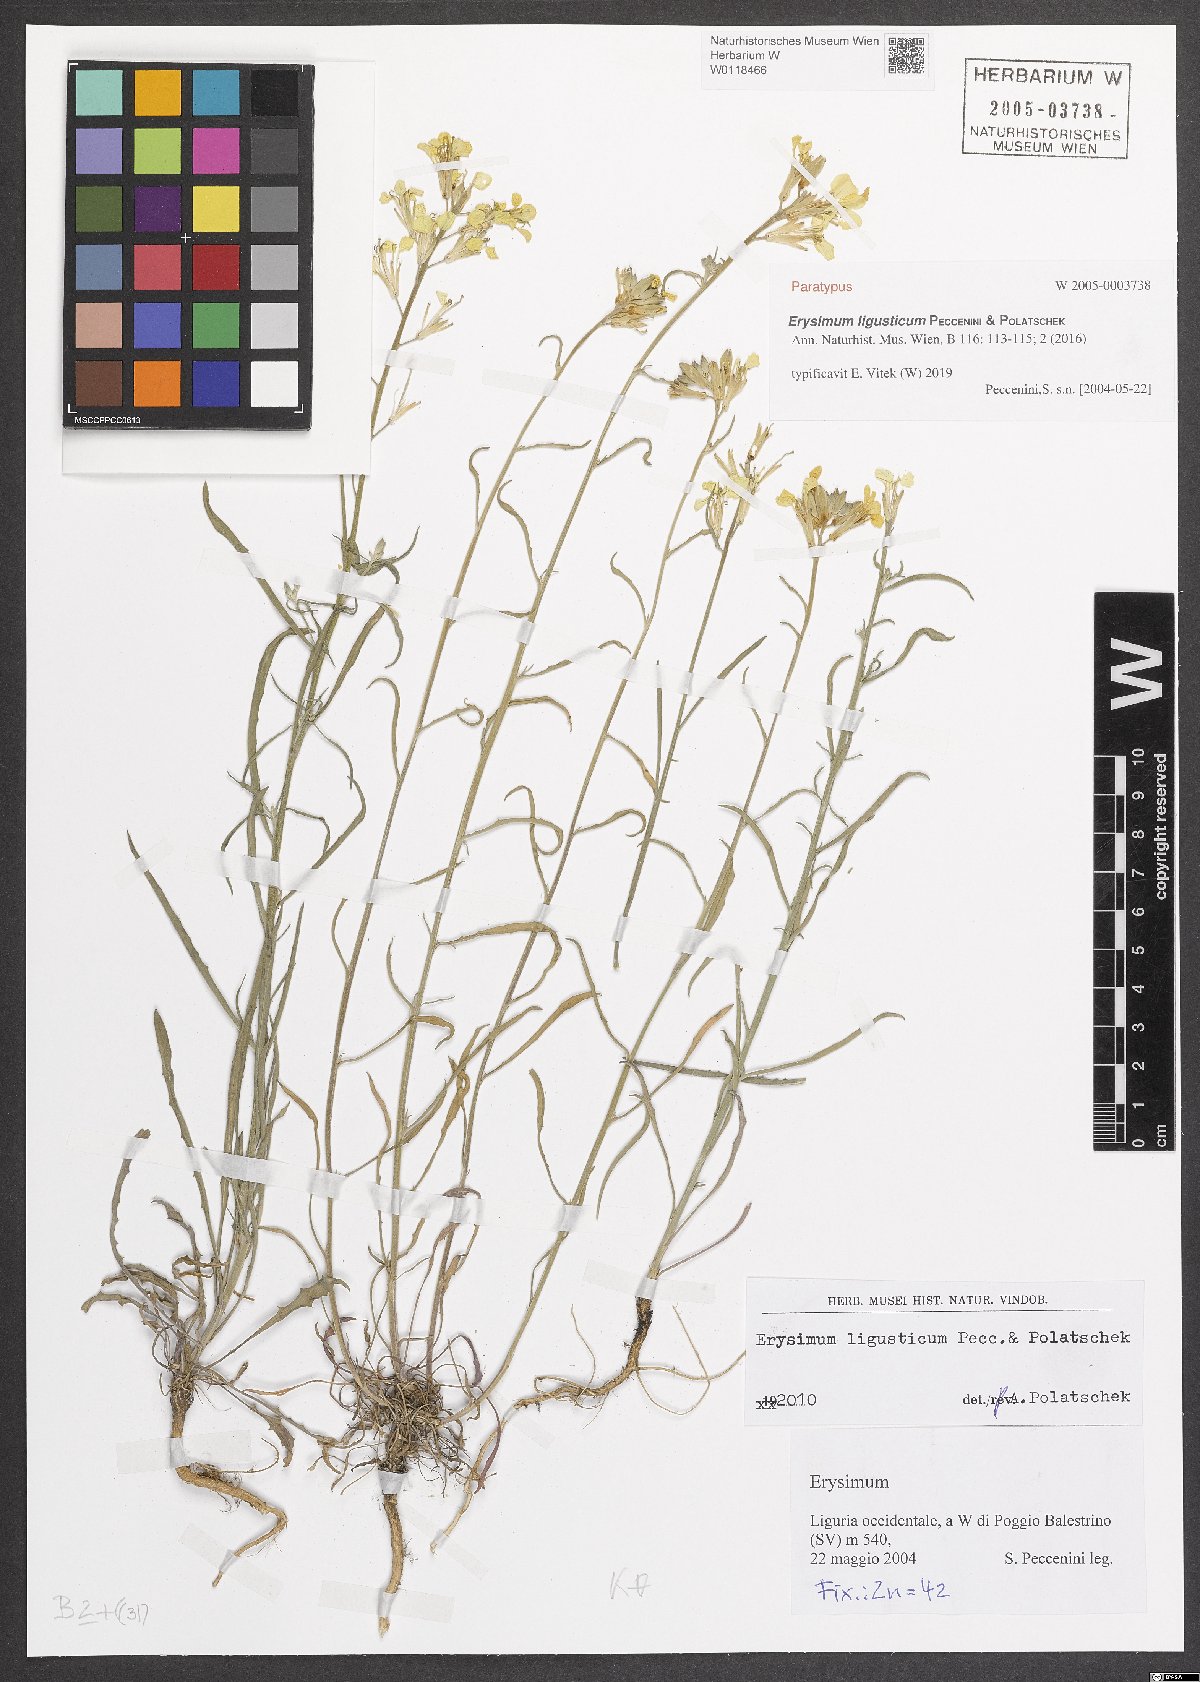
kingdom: Plantae
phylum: Tracheophyta
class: Magnoliopsida
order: Brassicales
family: Brassicaceae
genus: Erysimum
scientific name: Erysimum ligusticum
